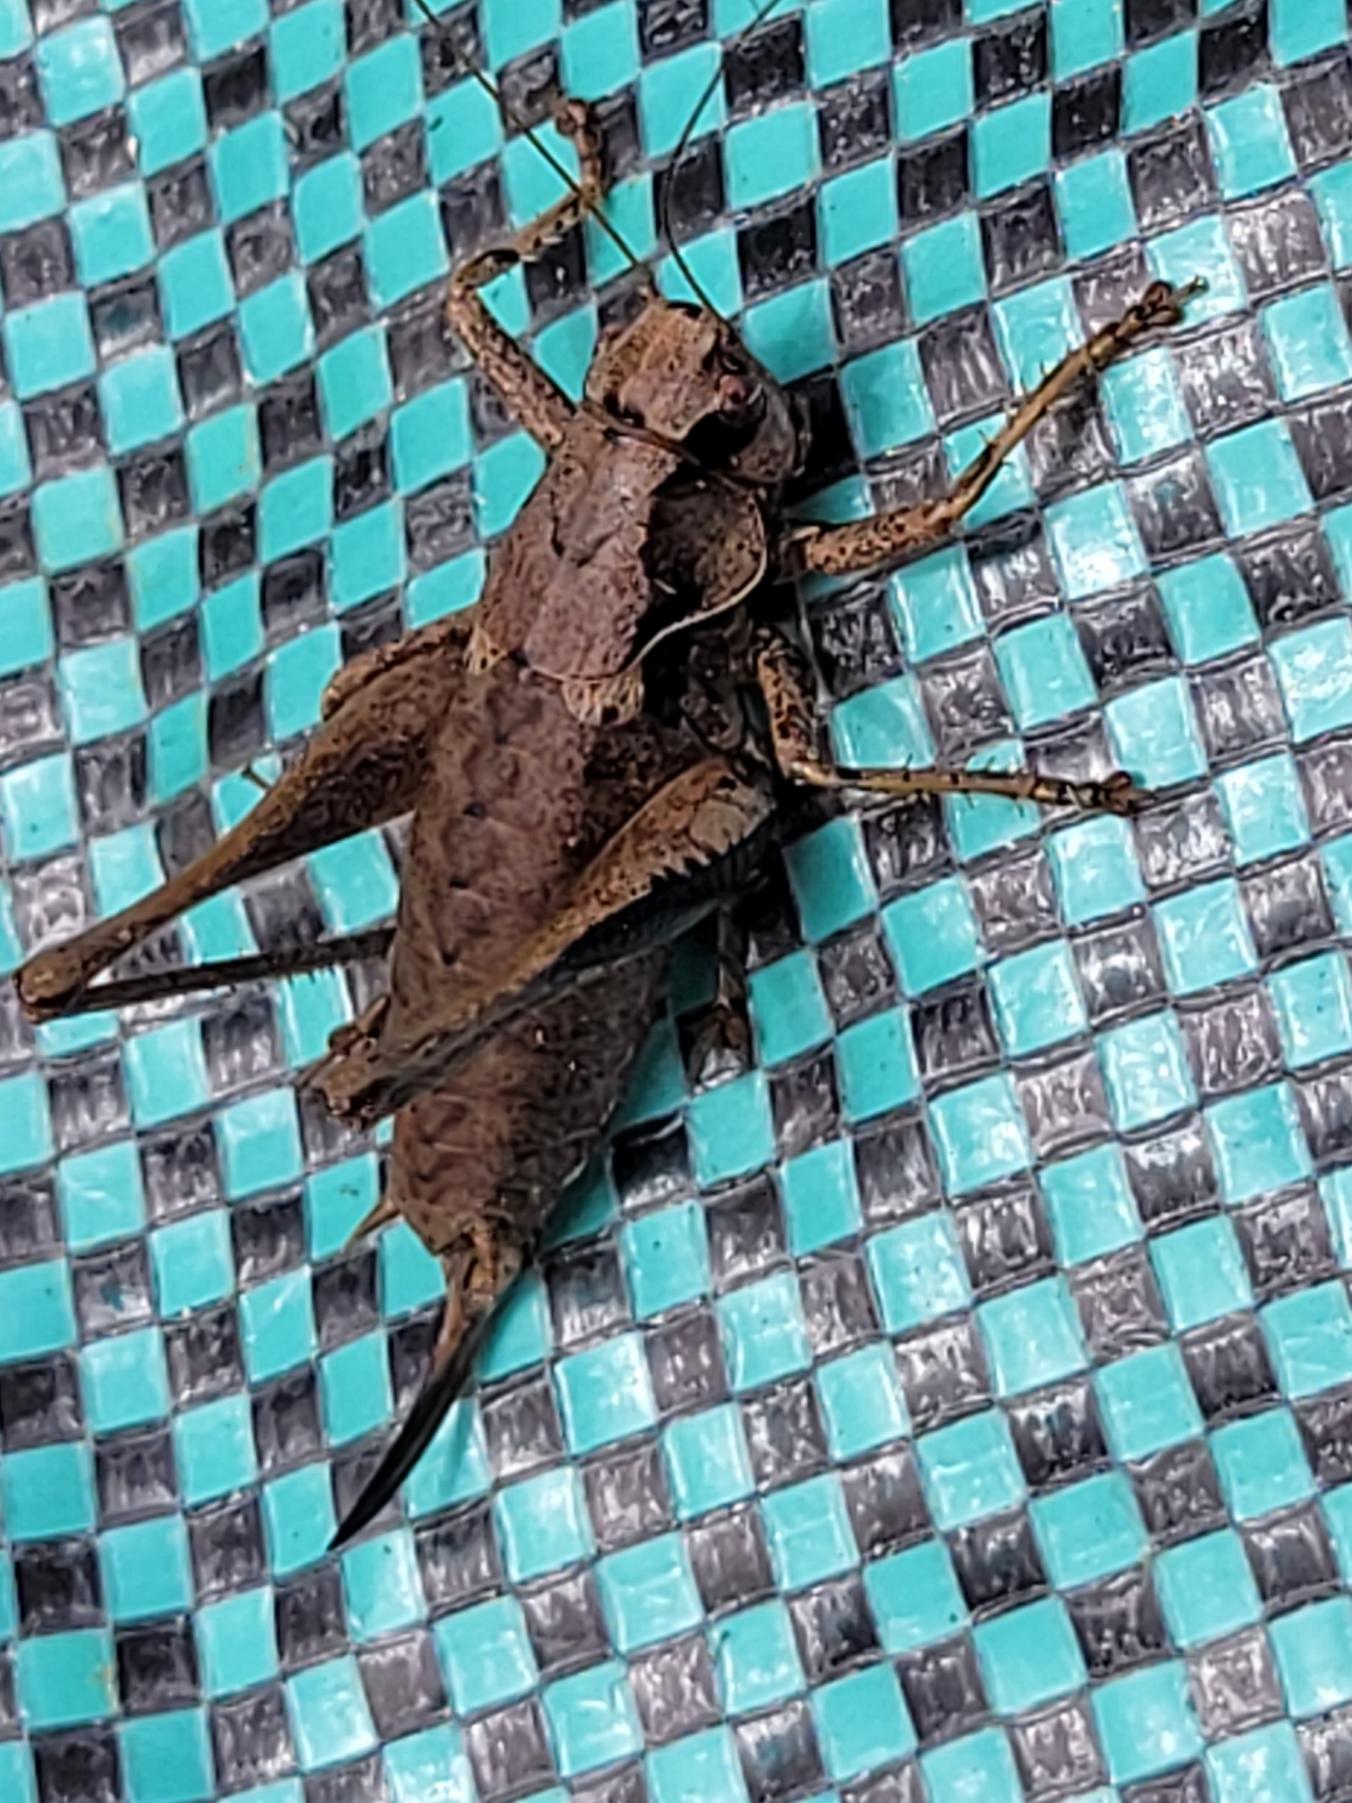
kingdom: Animalia
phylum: Arthropoda
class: Insecta
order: Orthoptera
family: Tettigoniidae
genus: Pholidoptera
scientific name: Pholidoptera griseoaptera
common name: Buskgræshoppe
